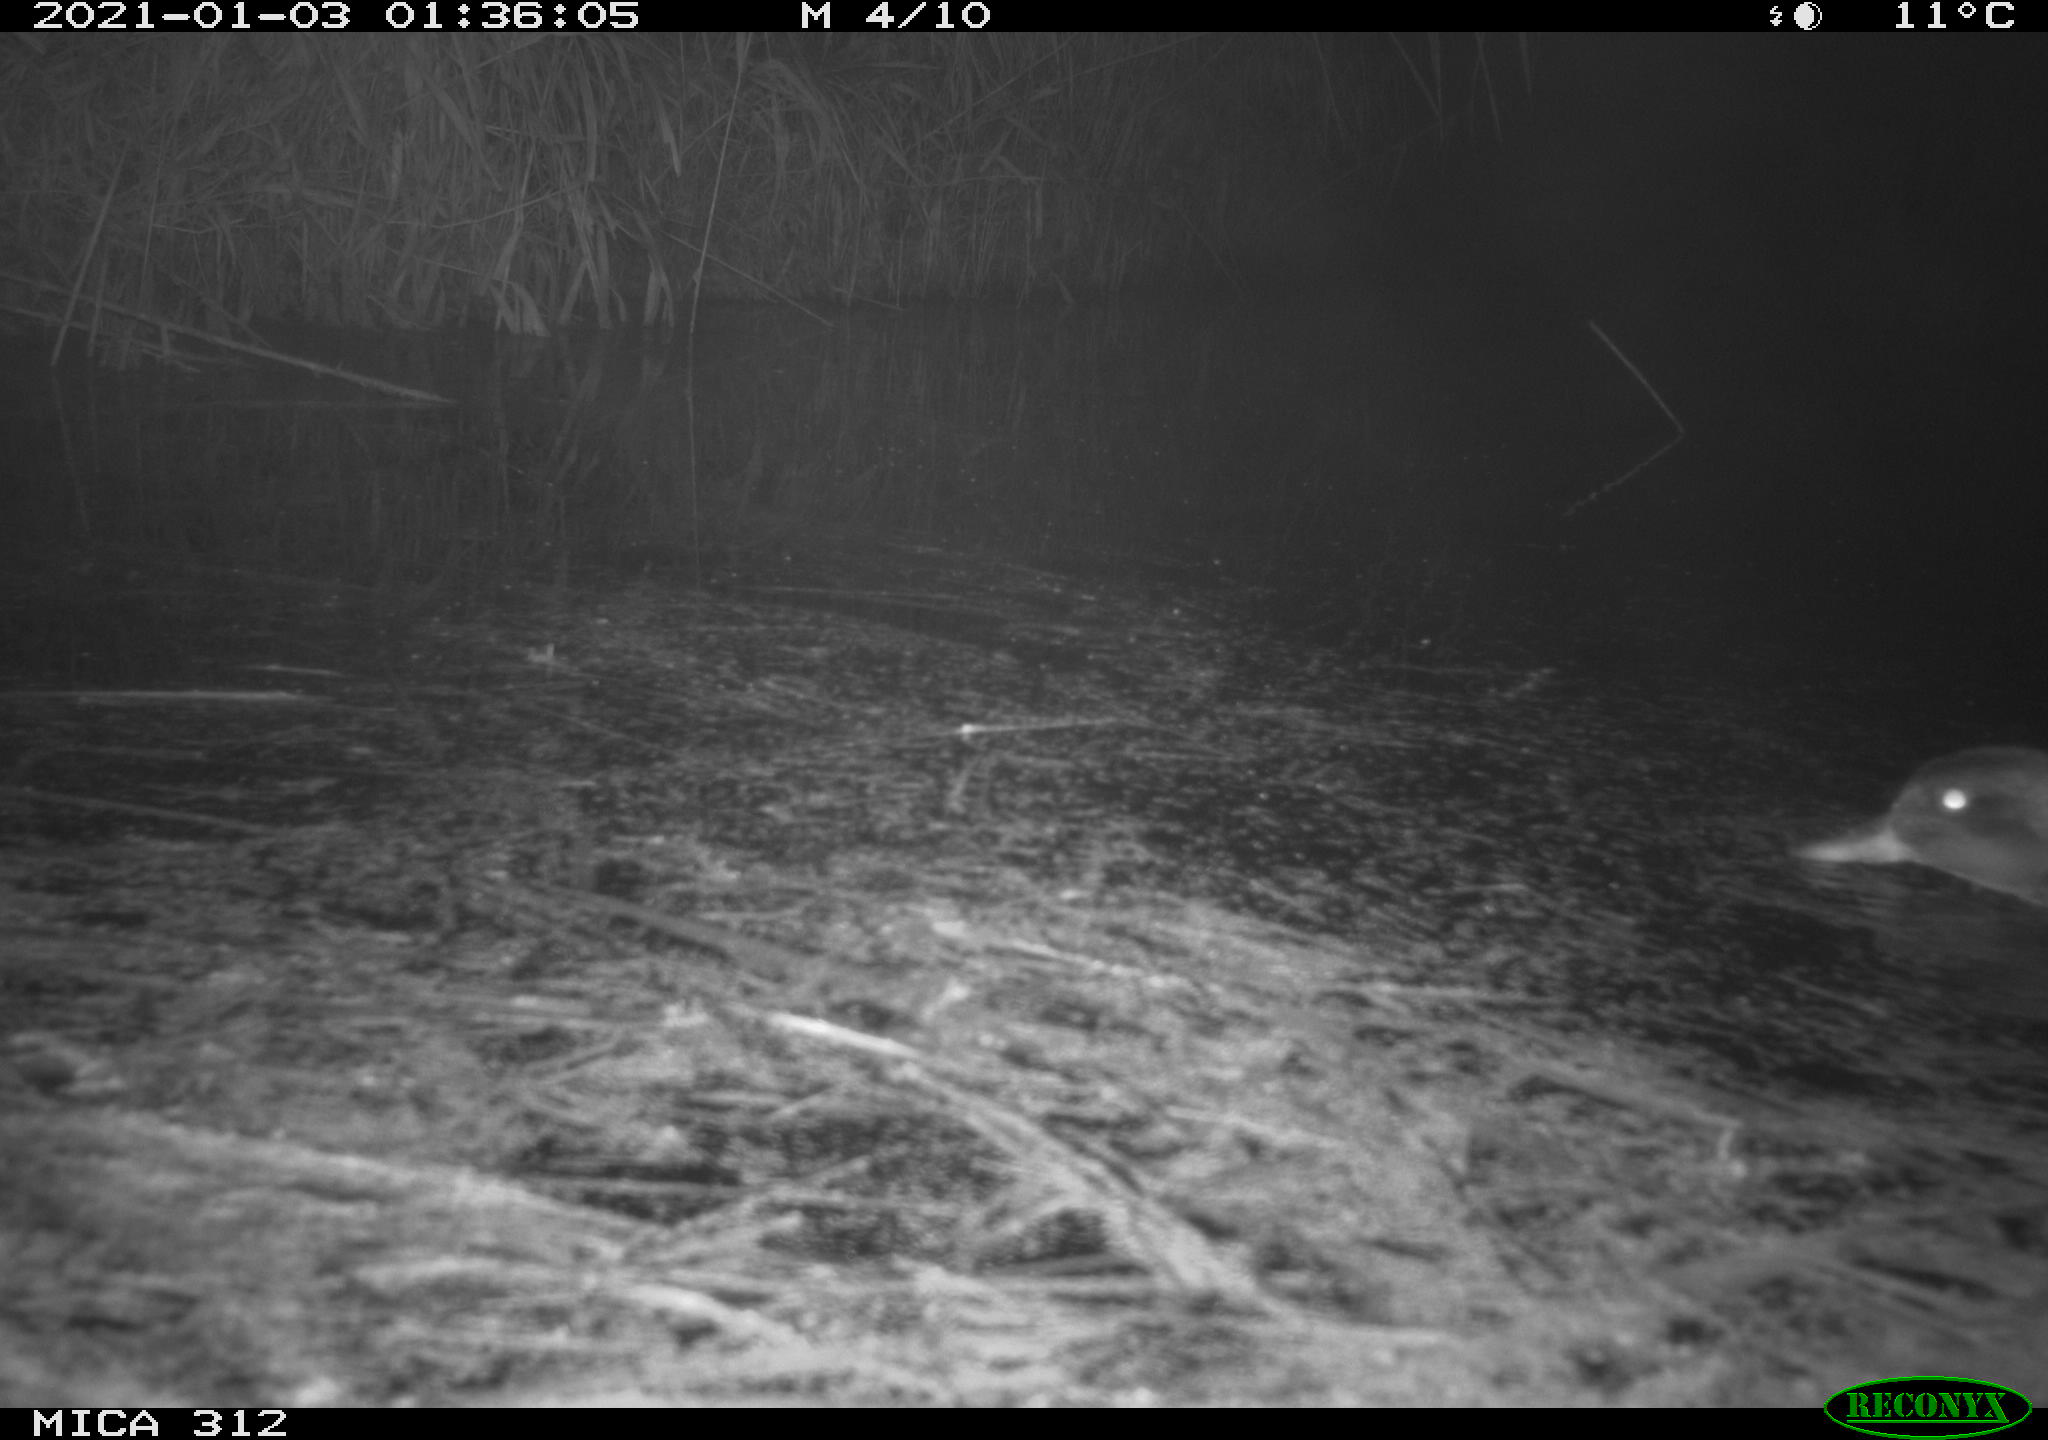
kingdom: Animalia
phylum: Chordata
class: Aves
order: Anseriformes
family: Anatidae
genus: Anas
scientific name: Anas
